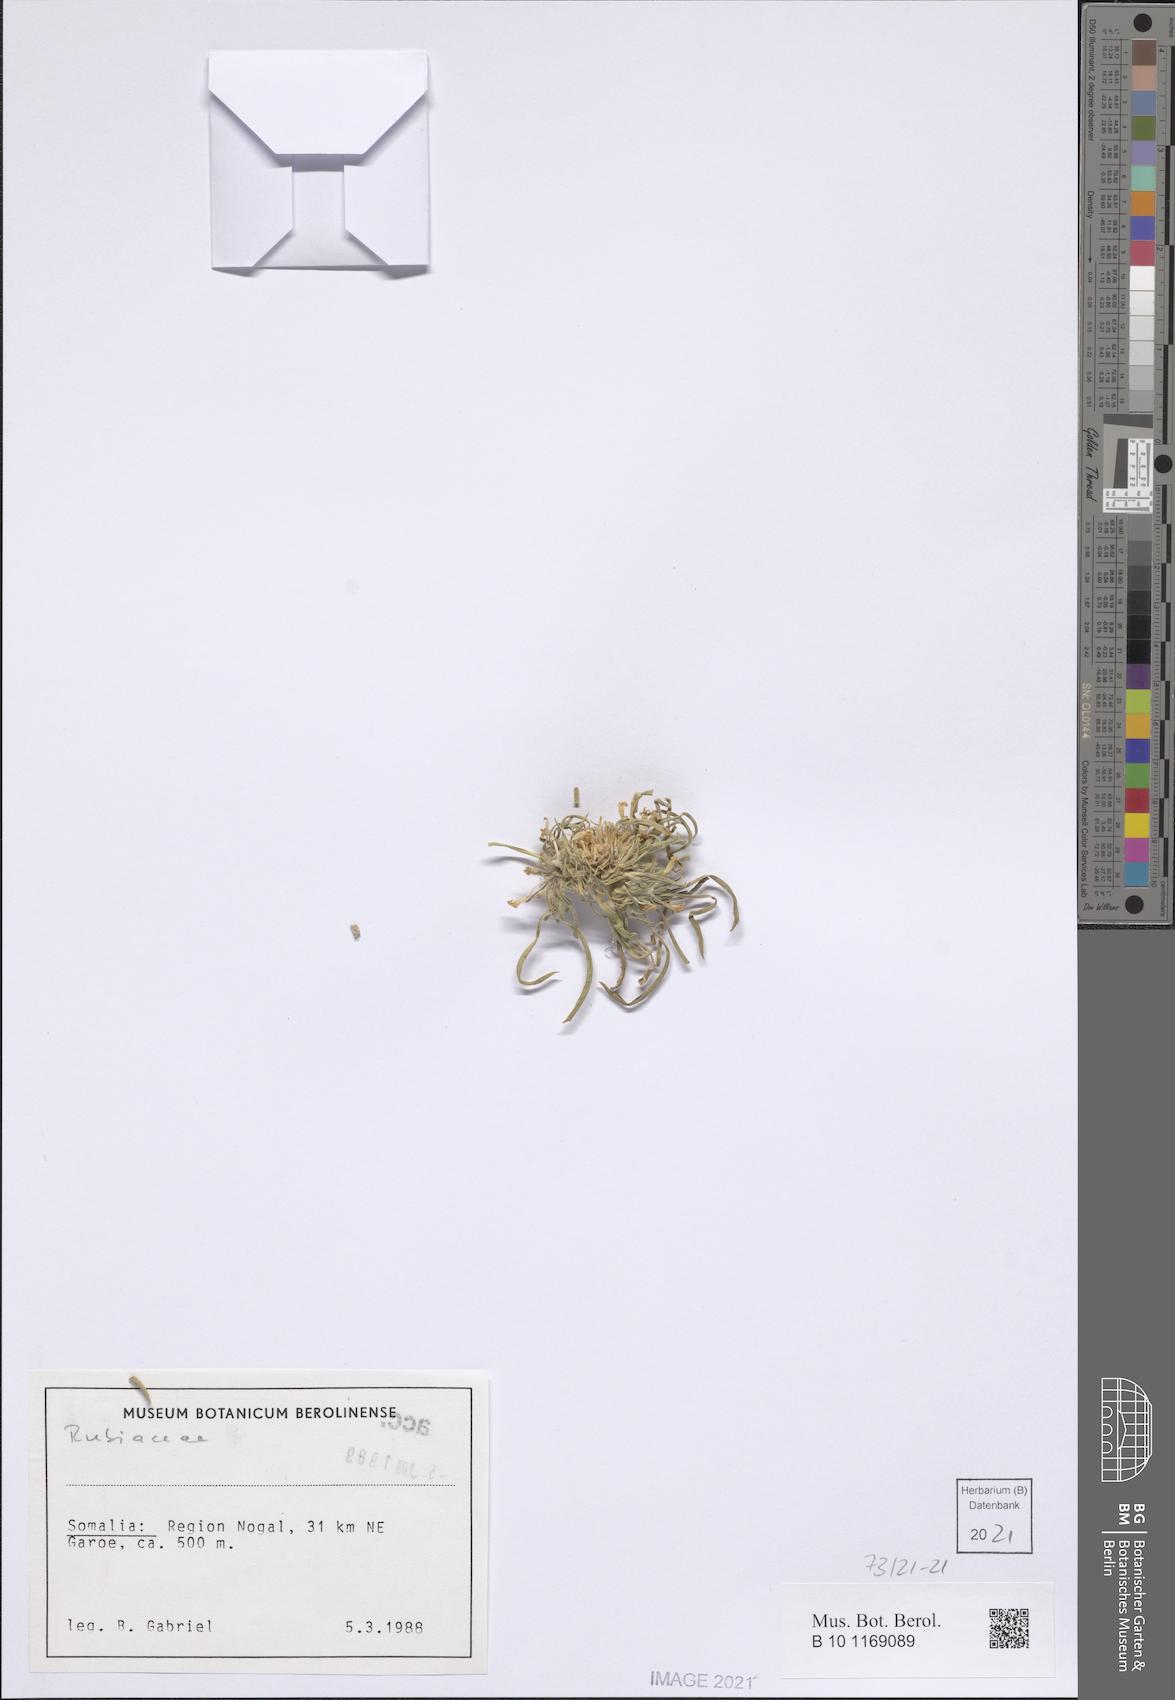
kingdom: Plantae
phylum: Tracheophyta
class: Magnoliopsida
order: Gentianales
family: Rubiaceae
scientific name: Rubiaceae
